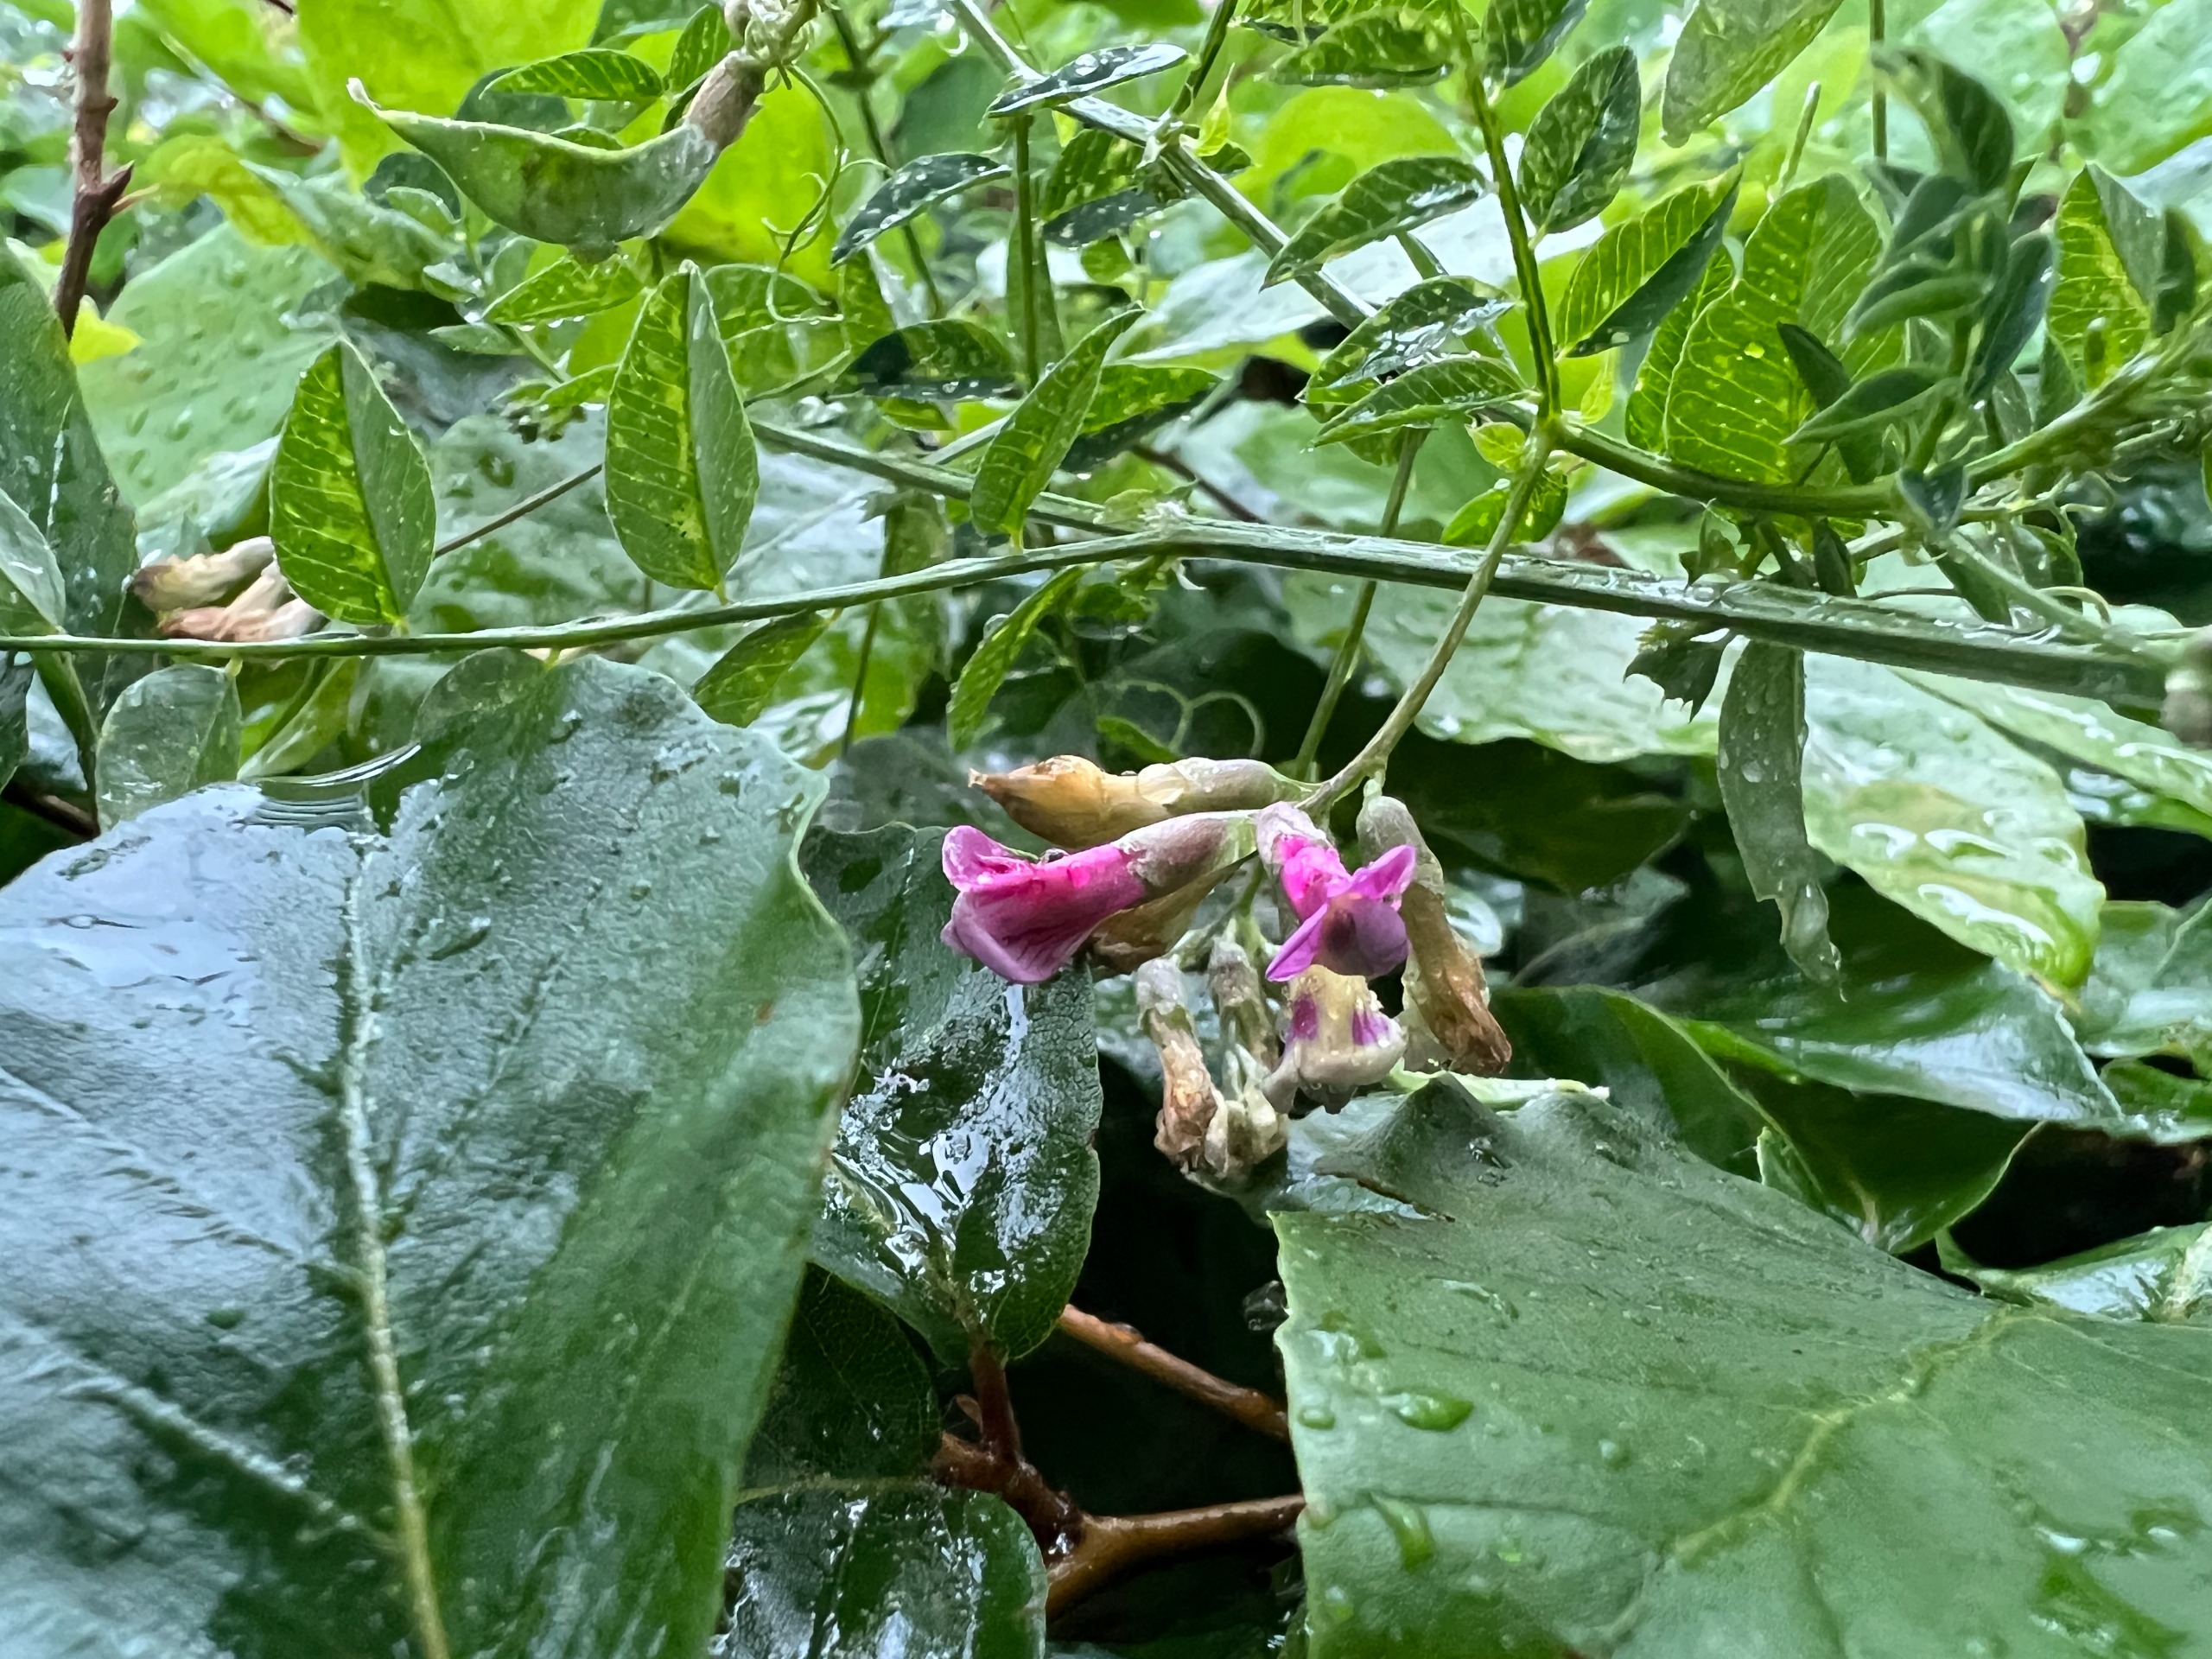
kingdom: Plantae
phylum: Tracheophyta
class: Magnoliopsida
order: Fabales
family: Fabaceae
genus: Vicia
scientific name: Vicia dumetorum
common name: Krat-vikke
